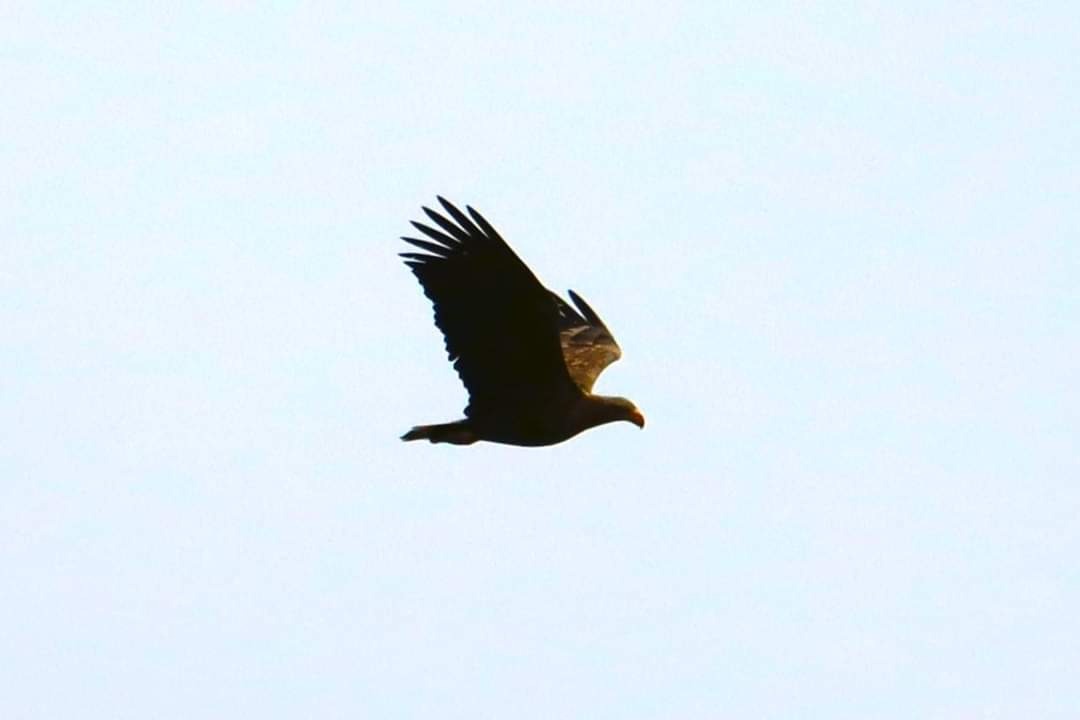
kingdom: Animalia
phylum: Chordata
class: Aves
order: Accipitriformes
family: Accipitridae
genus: Haliaeetus
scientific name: Haliaeetus albicilla
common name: Havørn
